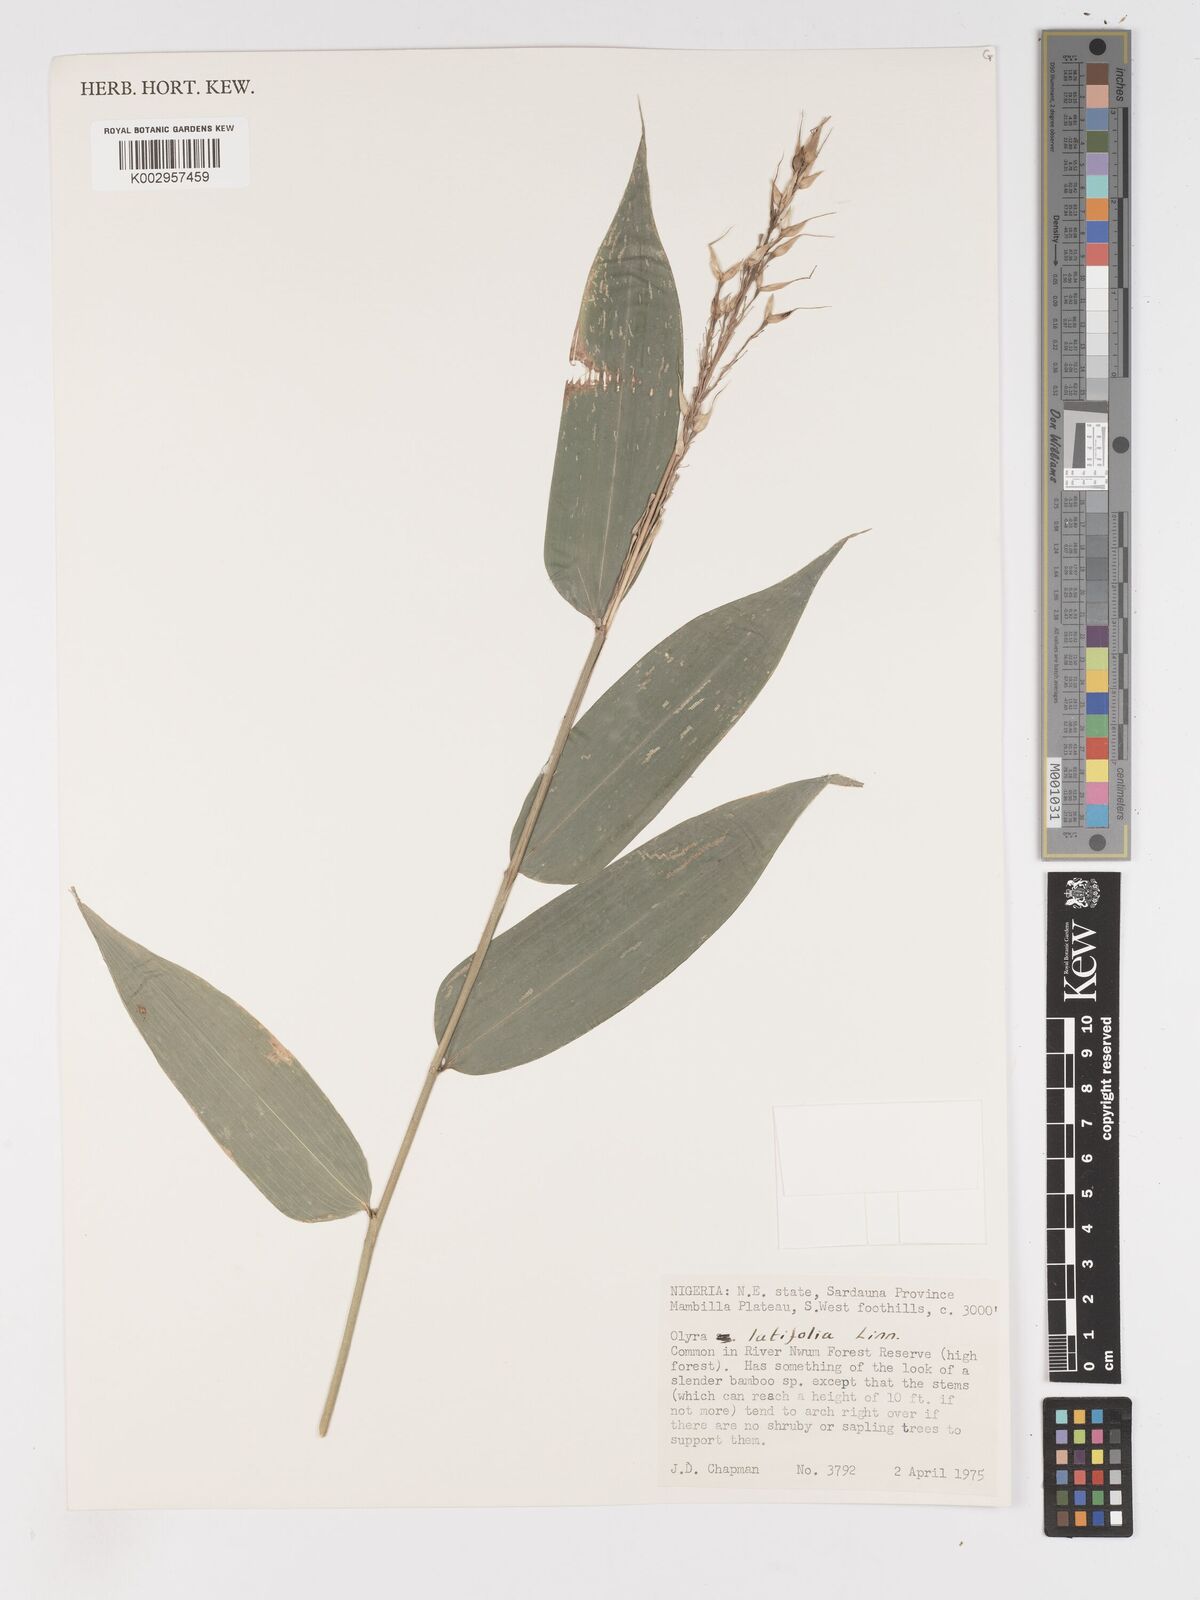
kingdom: Plantae
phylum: Tracheophyta
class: Liliopsida
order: Poales
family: Poaceae
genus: Olyra
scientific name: Olyra latifolia
